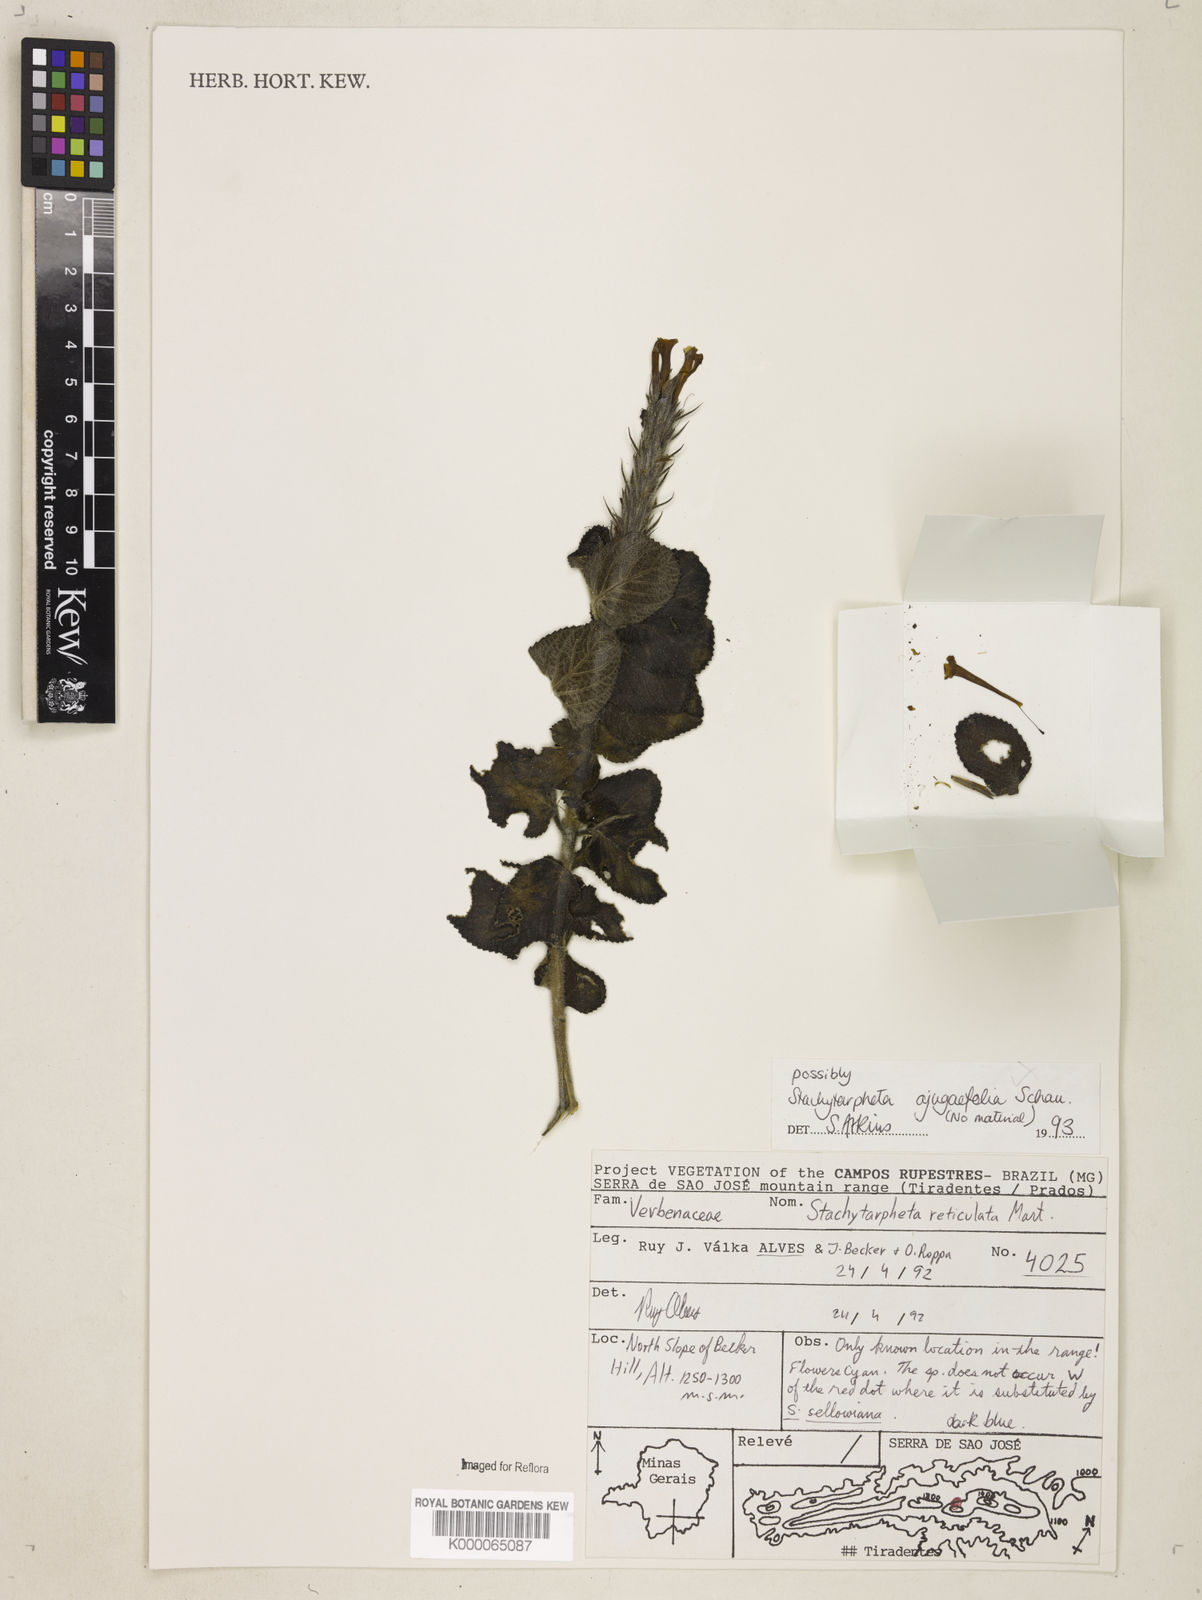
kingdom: Plantae
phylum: Tracheophyta
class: Magnoliopsida
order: Lamiales
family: Verbenaceae
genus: Stachytarpheta
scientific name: Stachytarpheta ajugifolia
